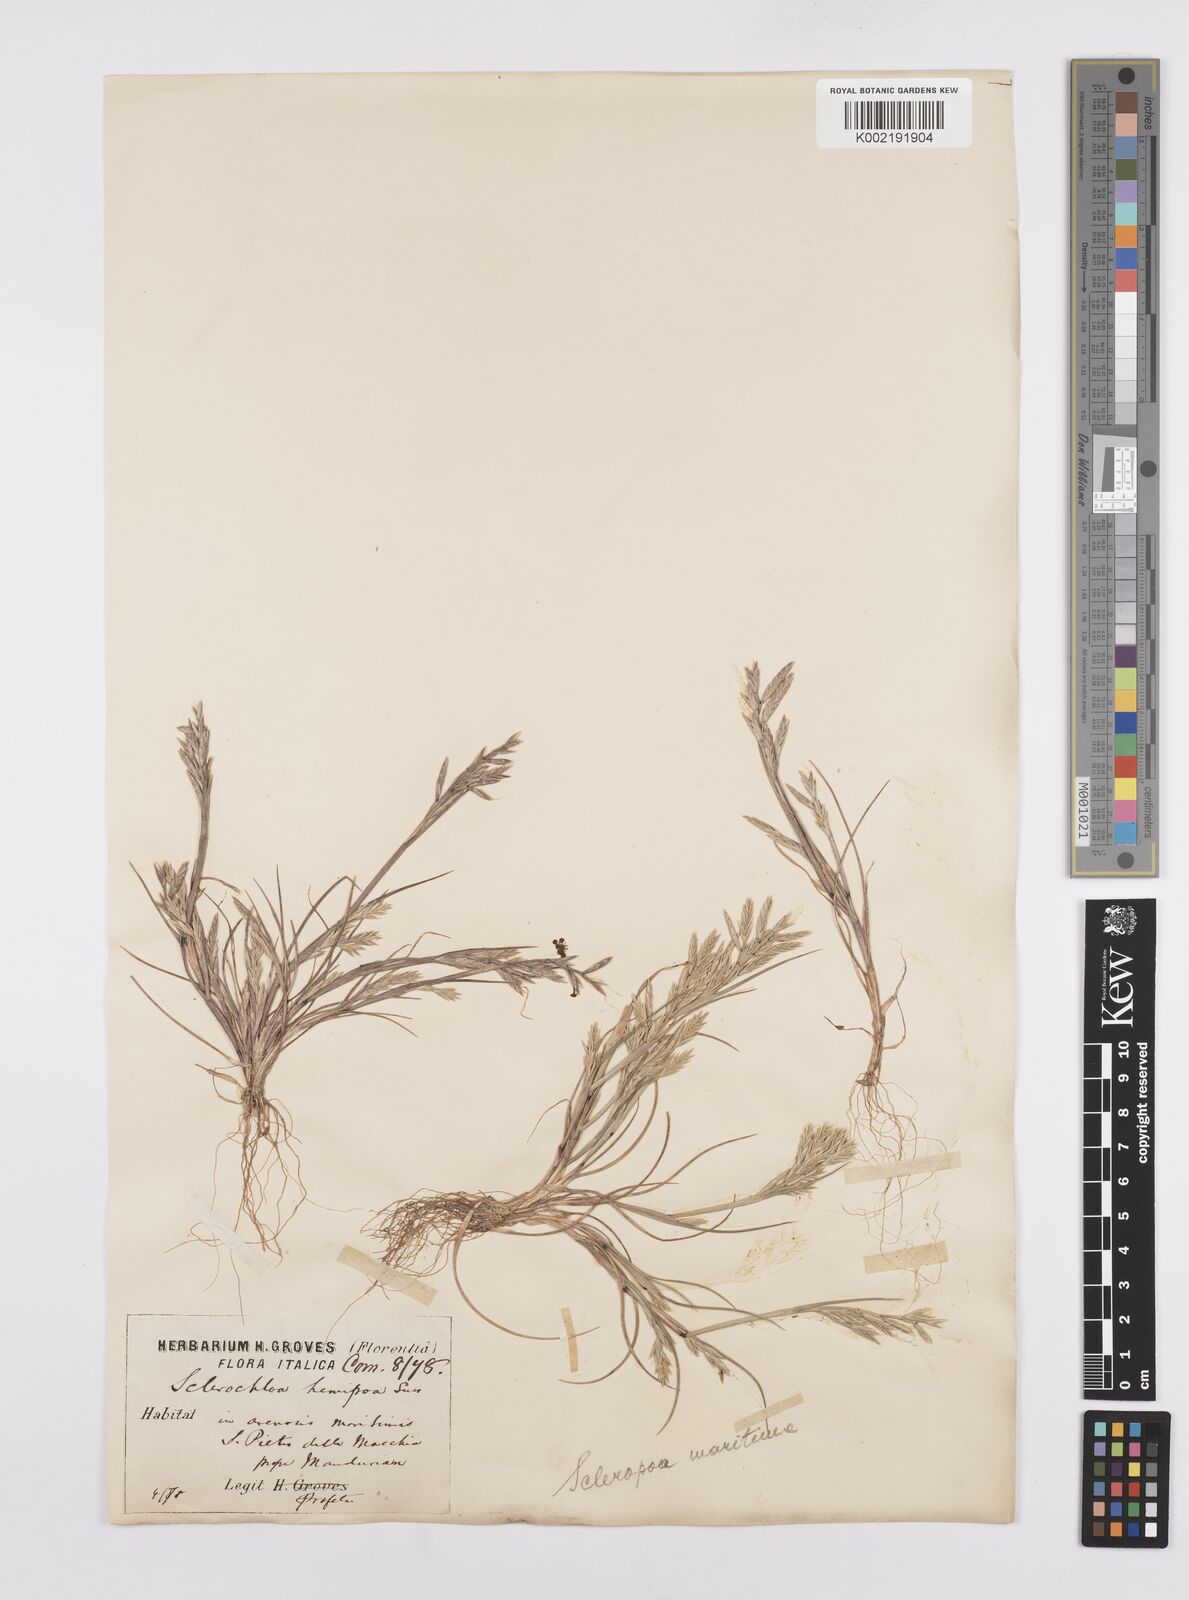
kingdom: Plantae
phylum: Tracheophyta
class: Liliopsida
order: Poales
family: Poaceae
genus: Cutandia
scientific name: Cutandia maritima
